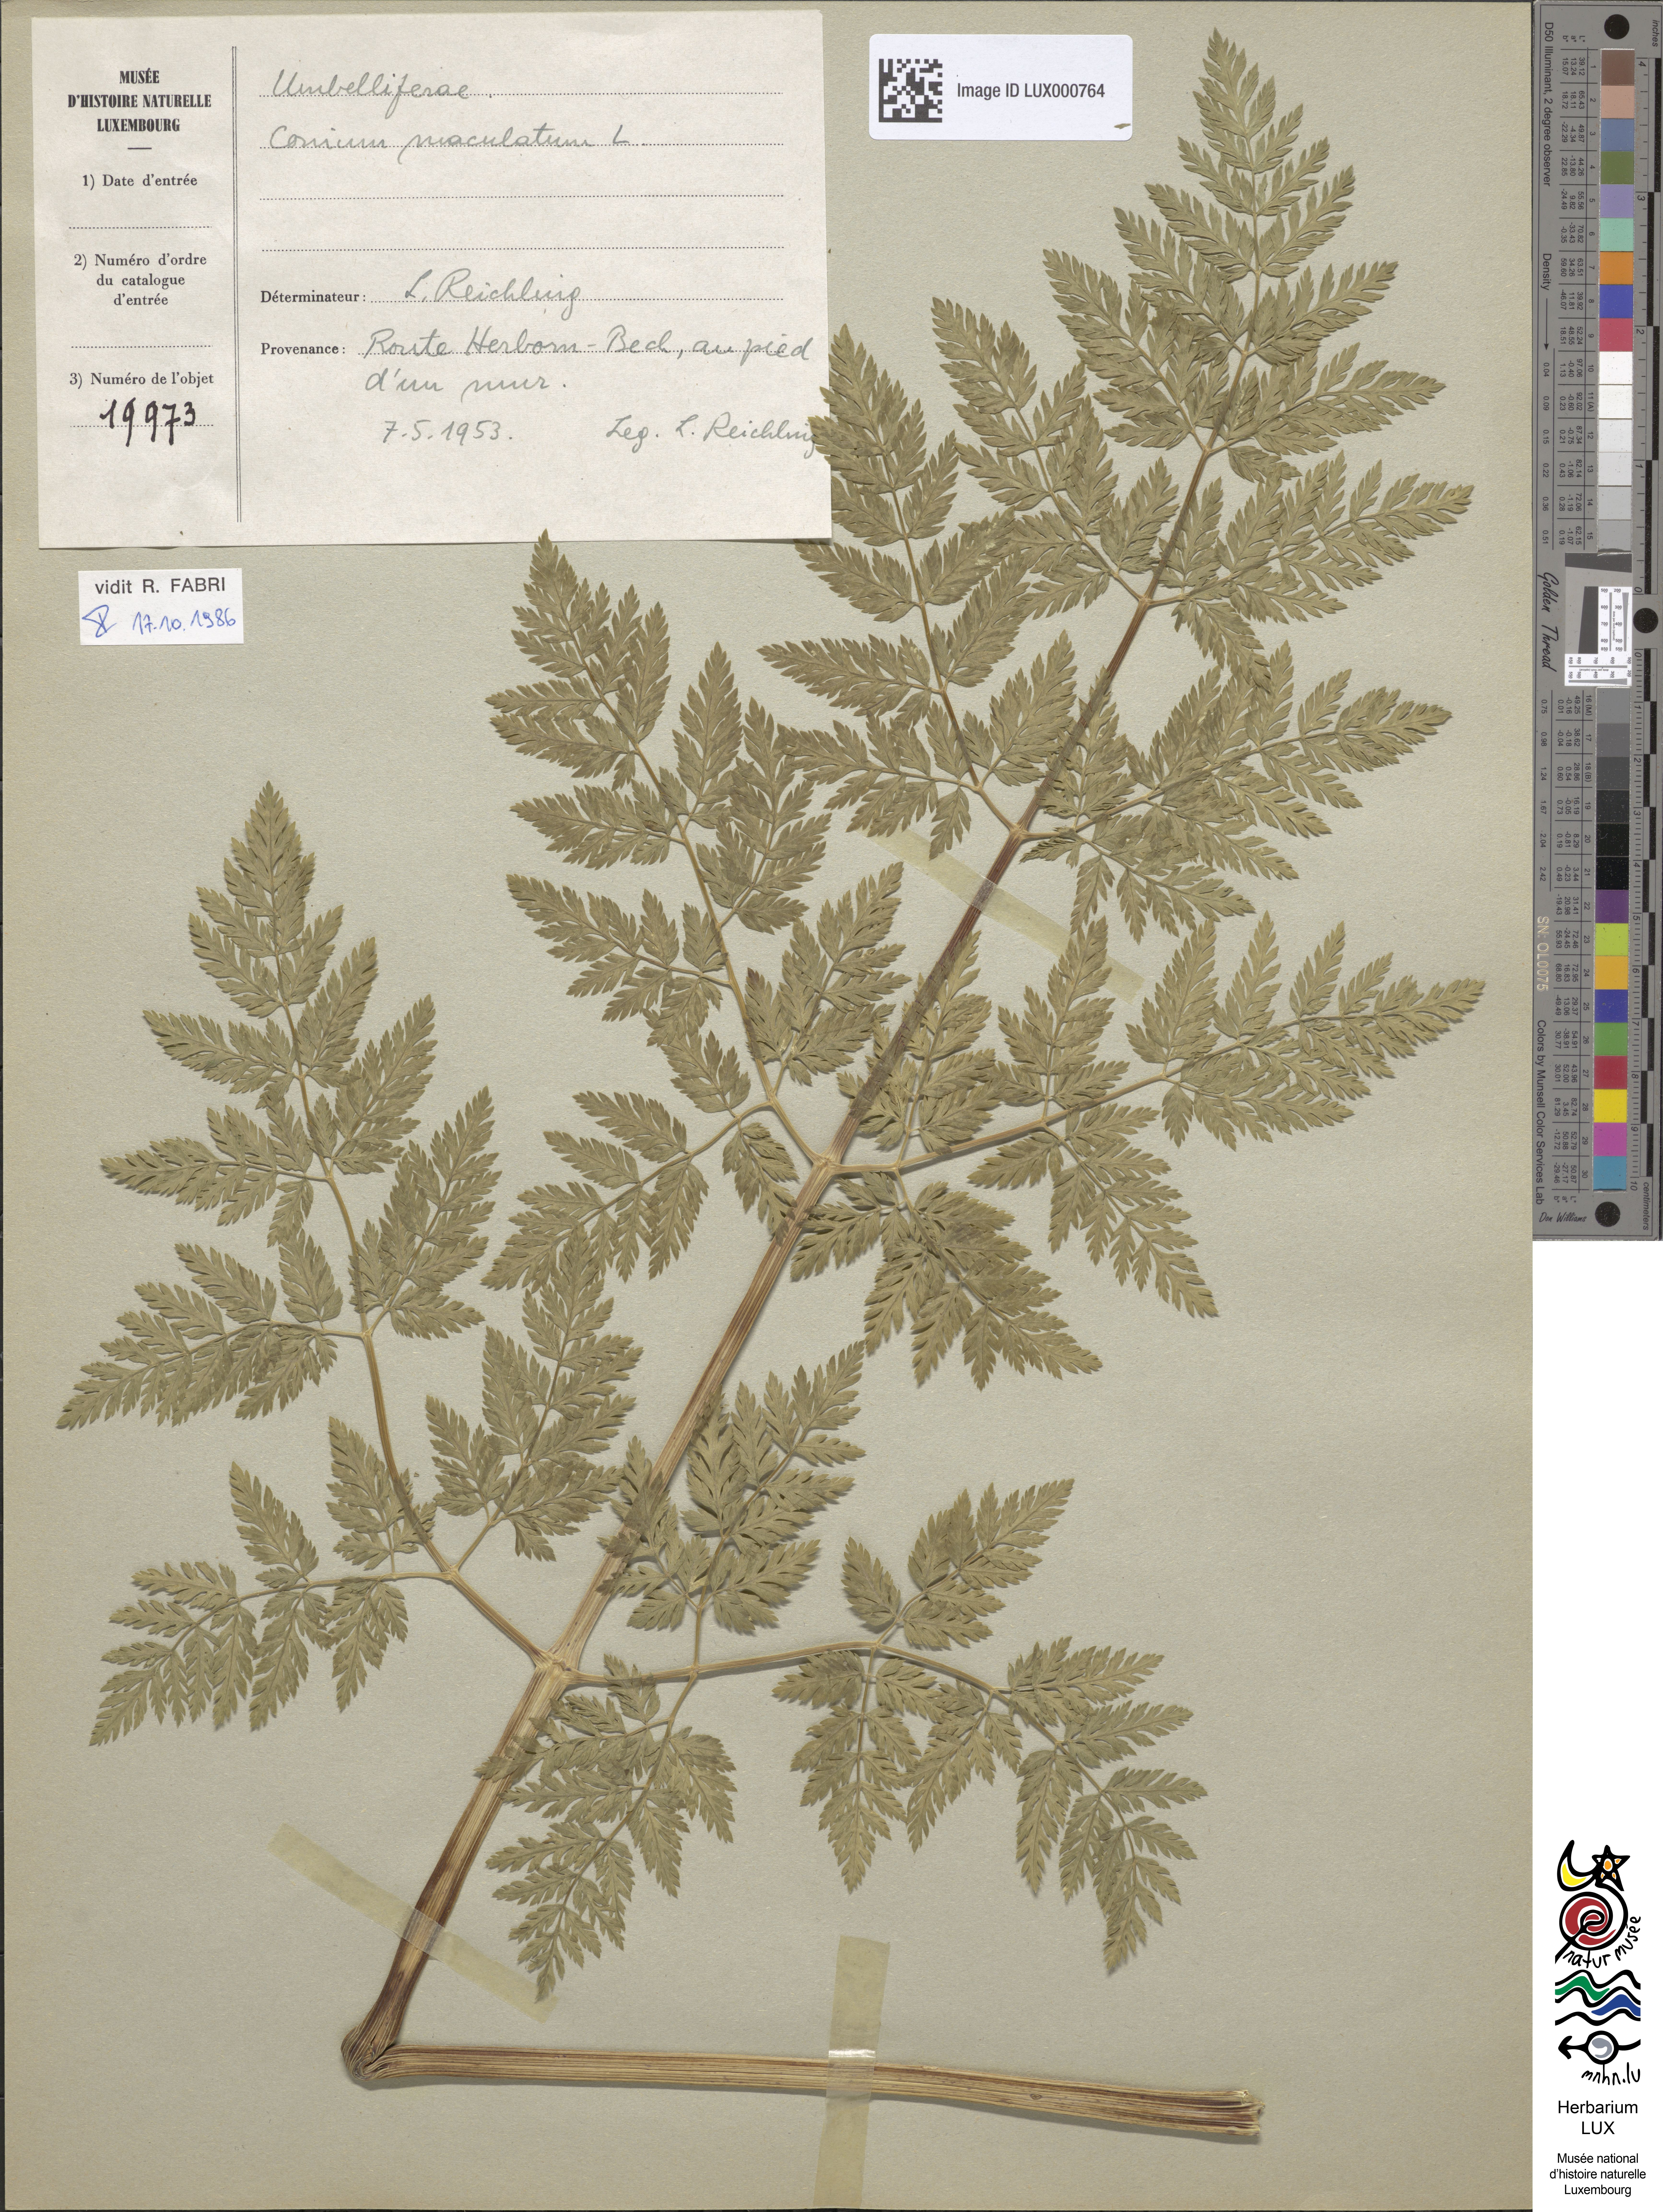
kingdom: Plantae
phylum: Tracheophyta
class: Magnoliopsida
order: Apiales
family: Apiaceae
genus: Conium
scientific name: Conium maculatum
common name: Hemlock
